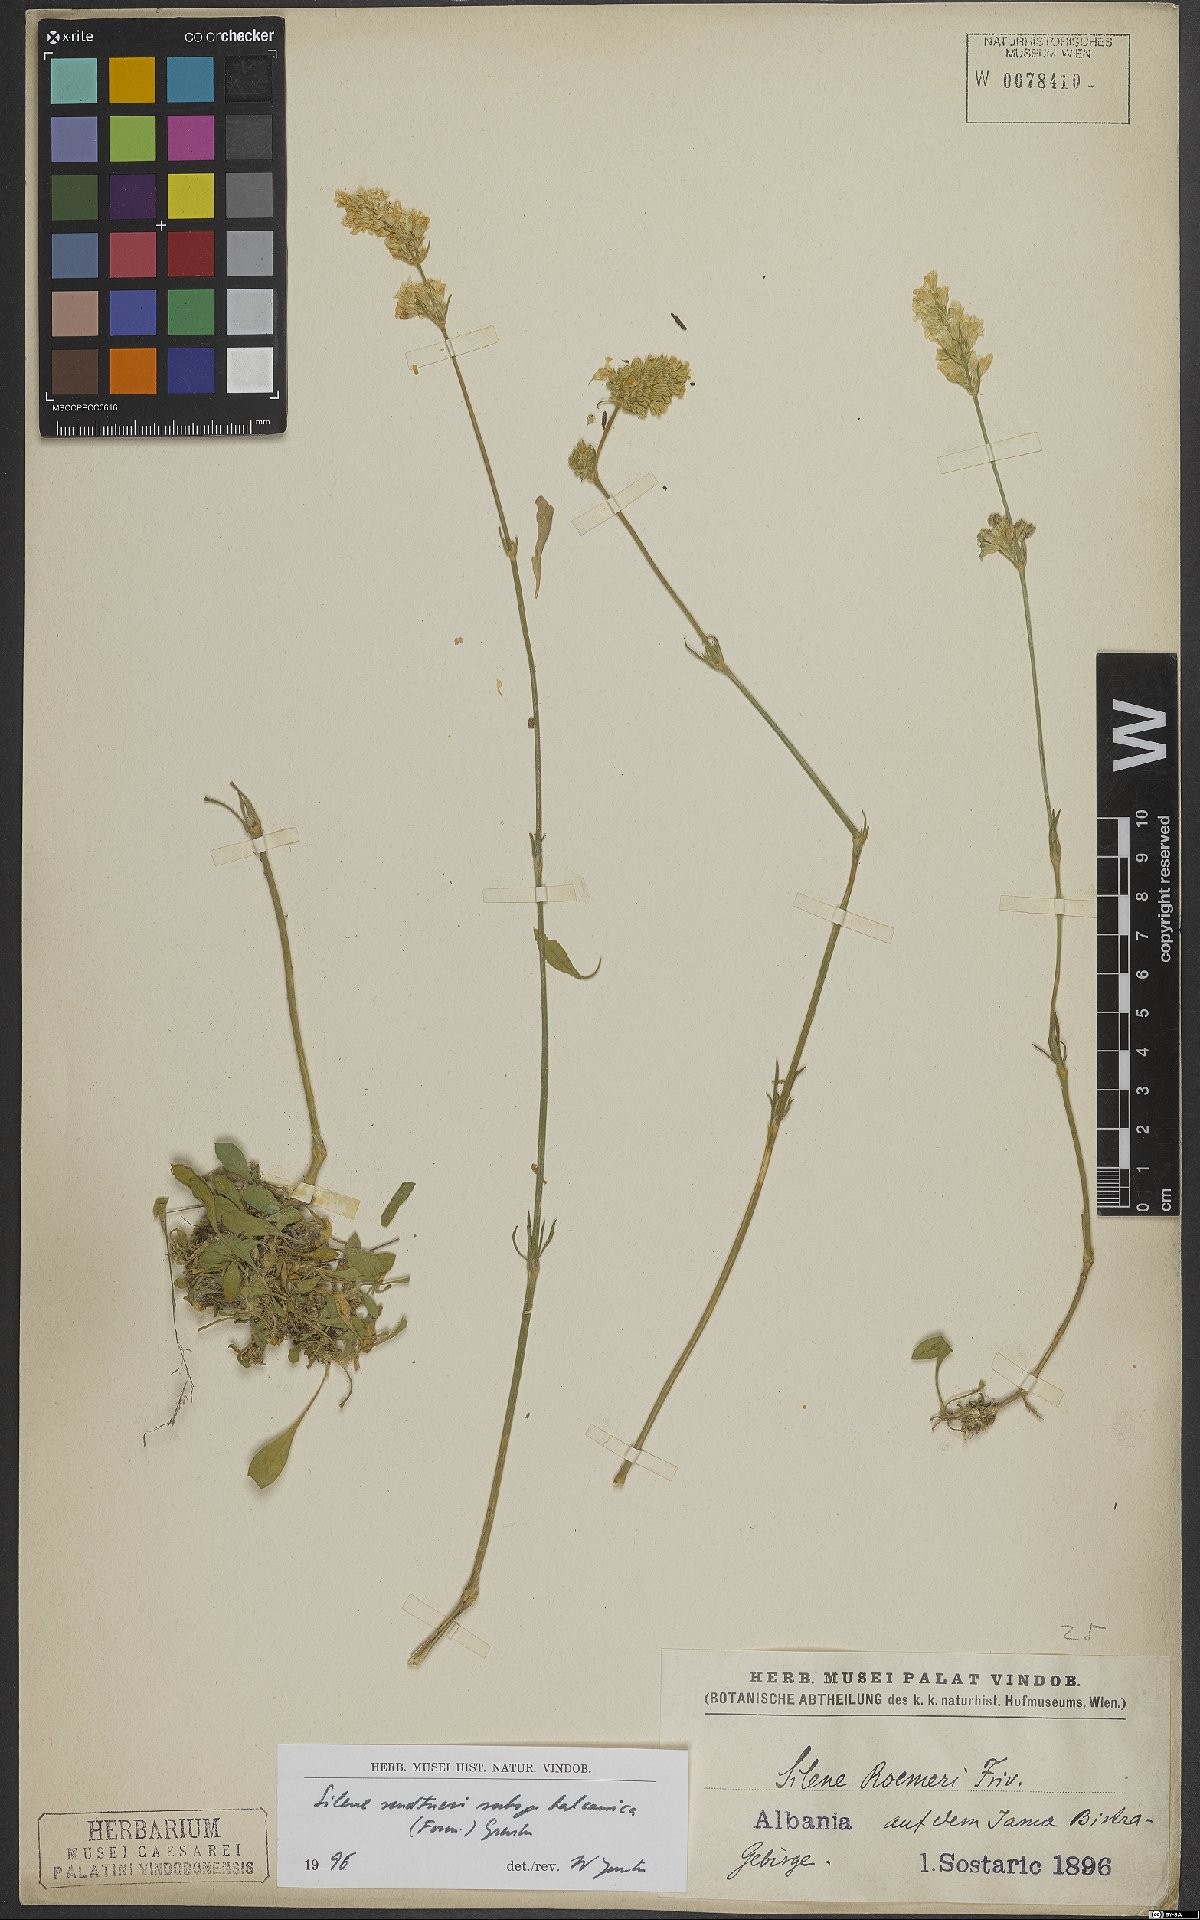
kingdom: Plantae
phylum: Tracheophyta
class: Magnoliopsida
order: Caryophyllales
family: Caryophyllaceae
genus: Silene
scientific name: Silene sendtneri
